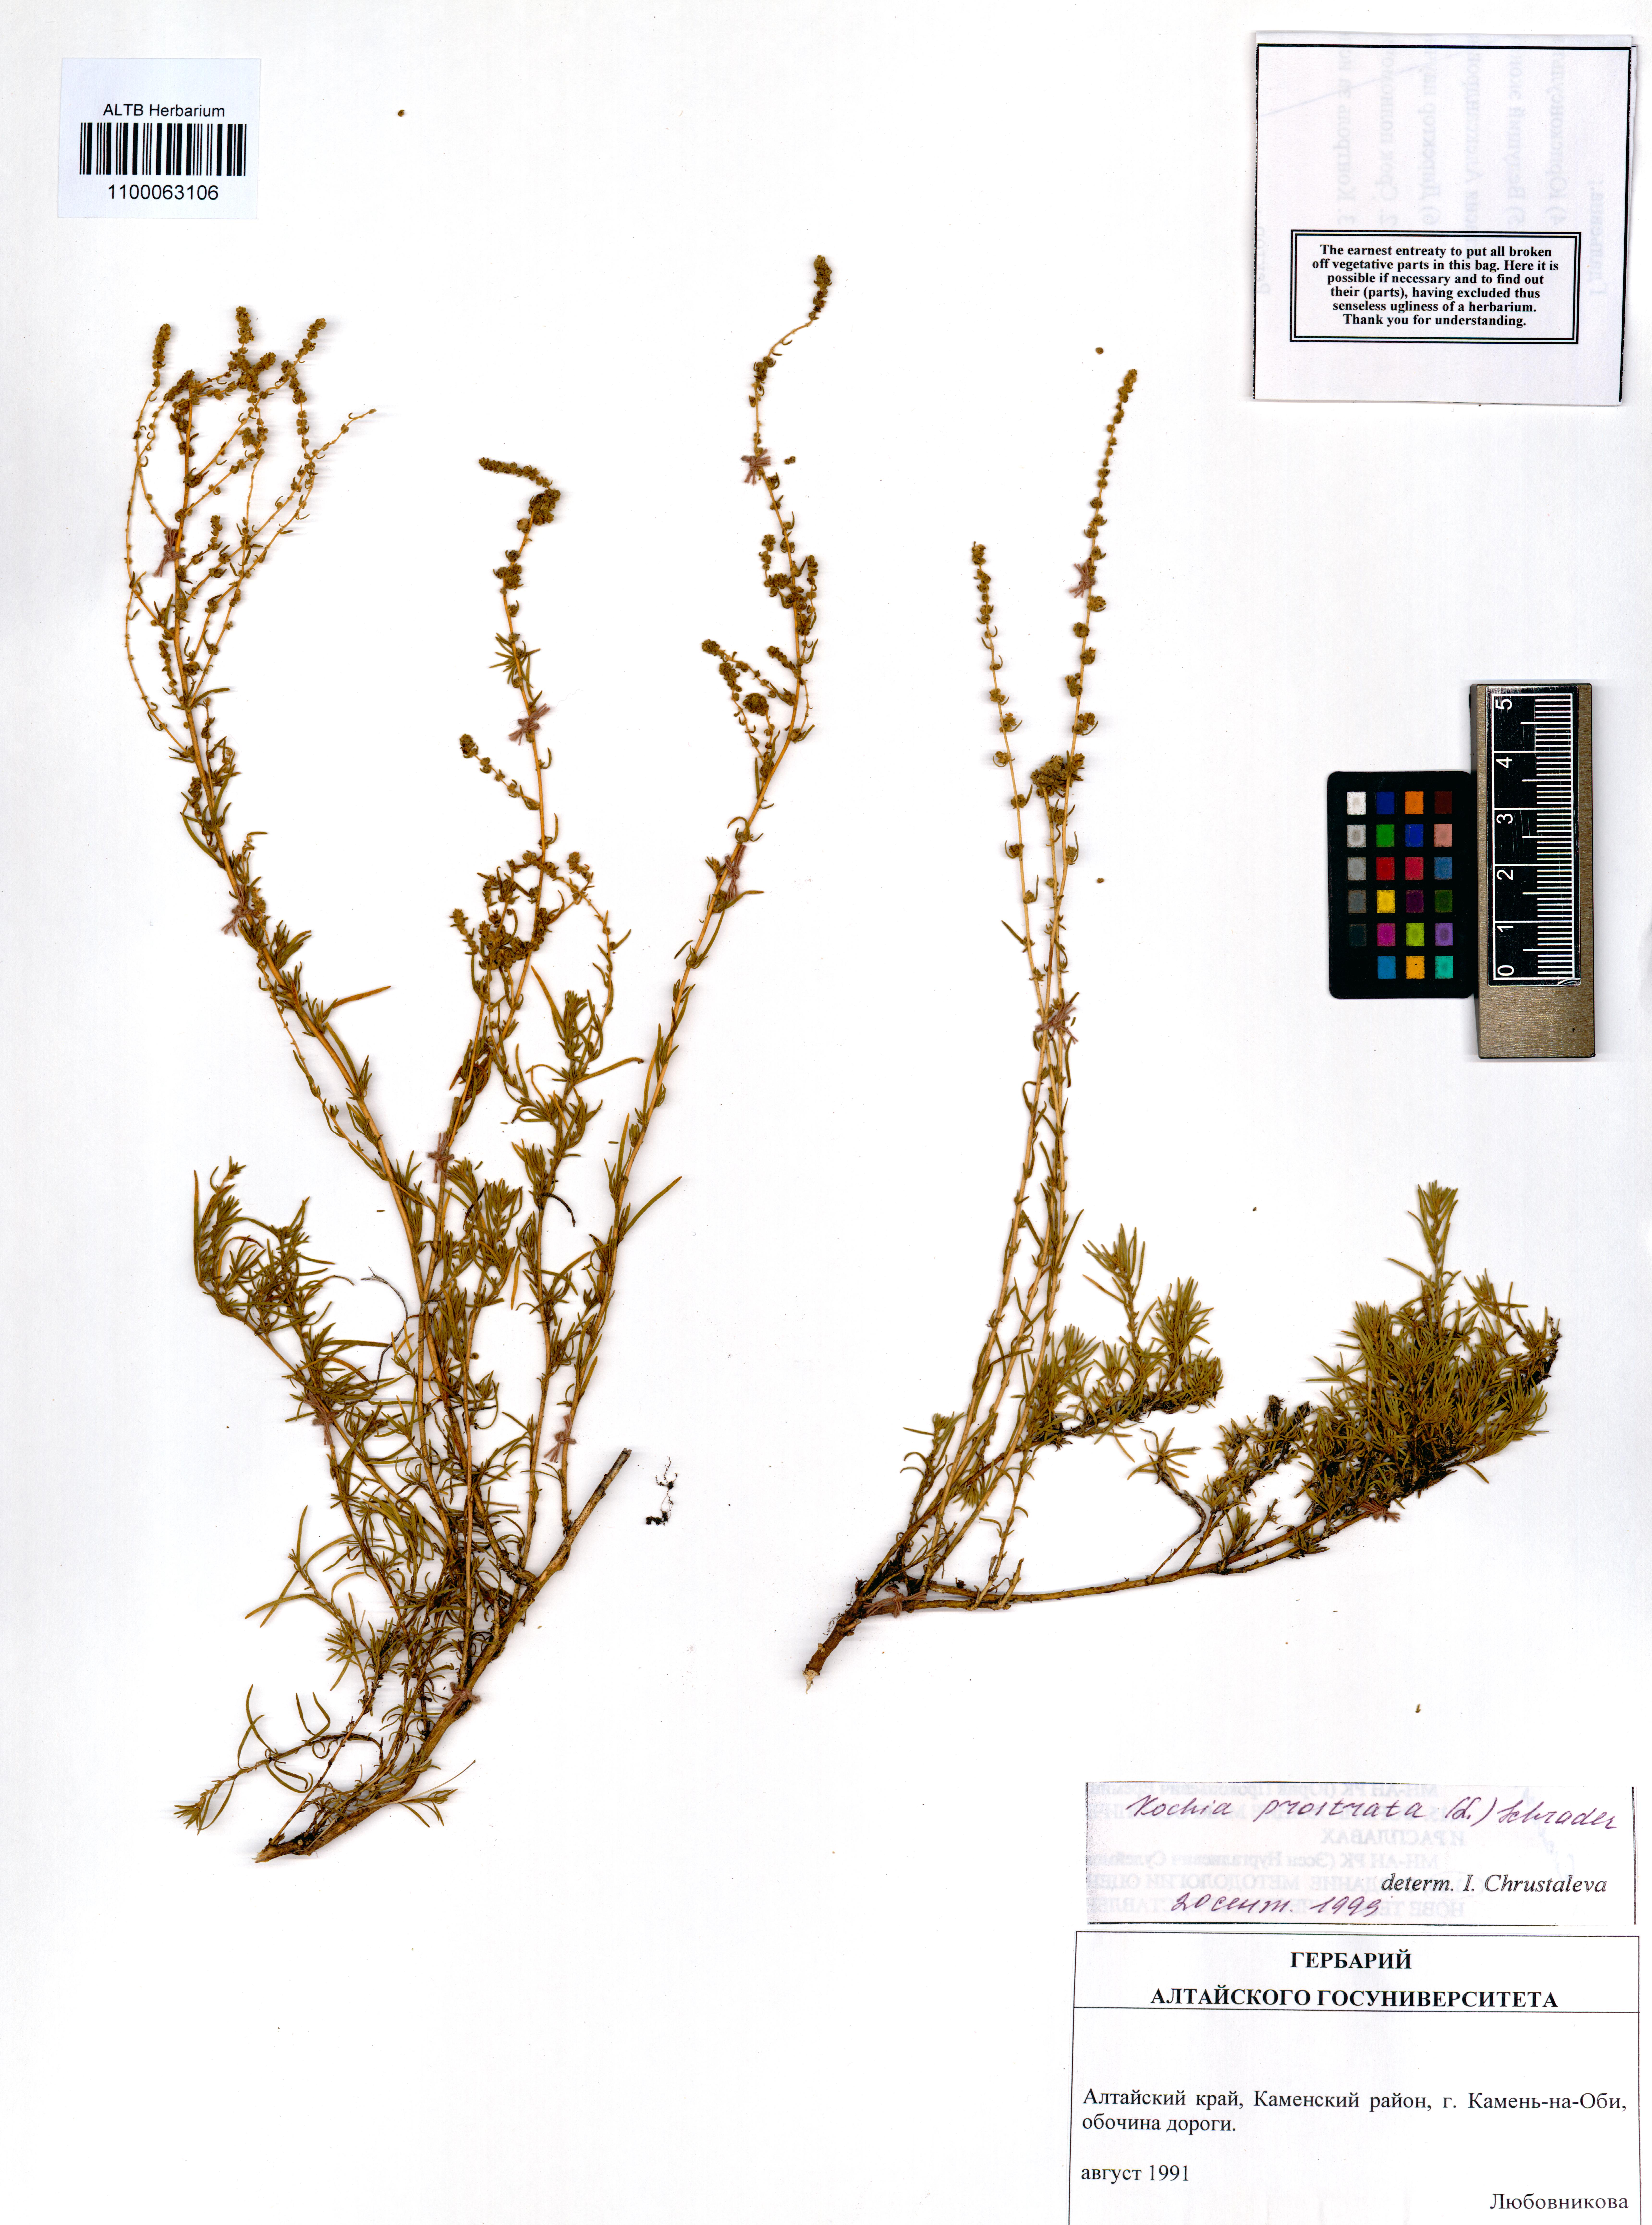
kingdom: Plantae
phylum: Tracheophyta
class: Magnoliopsida
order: Caryophyllales
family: Amaranthaceae
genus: Bassia
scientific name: Bassia prostrata
